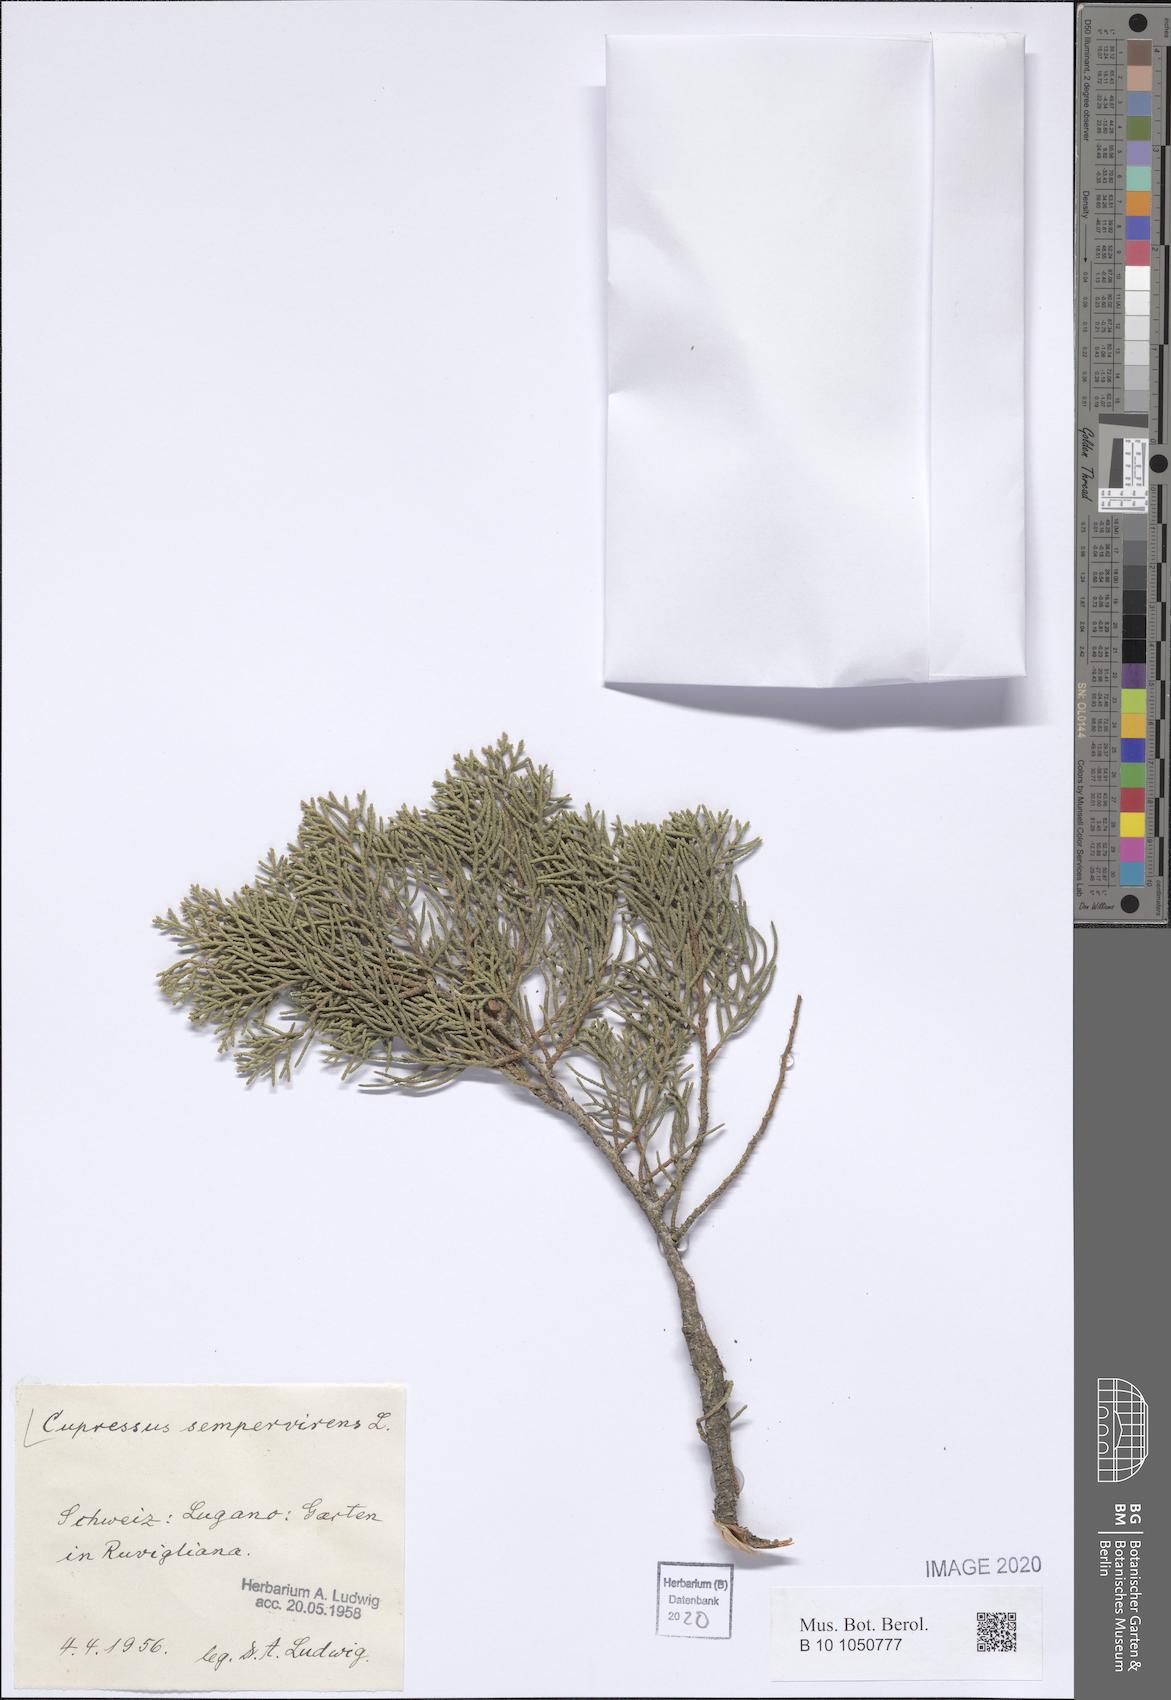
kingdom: Plantae
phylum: Tracheophyta
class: Pinopsida
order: Pinales
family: Cupressaceae
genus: Cupressus
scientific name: Cupressus sempervirens
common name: Italian cypress
